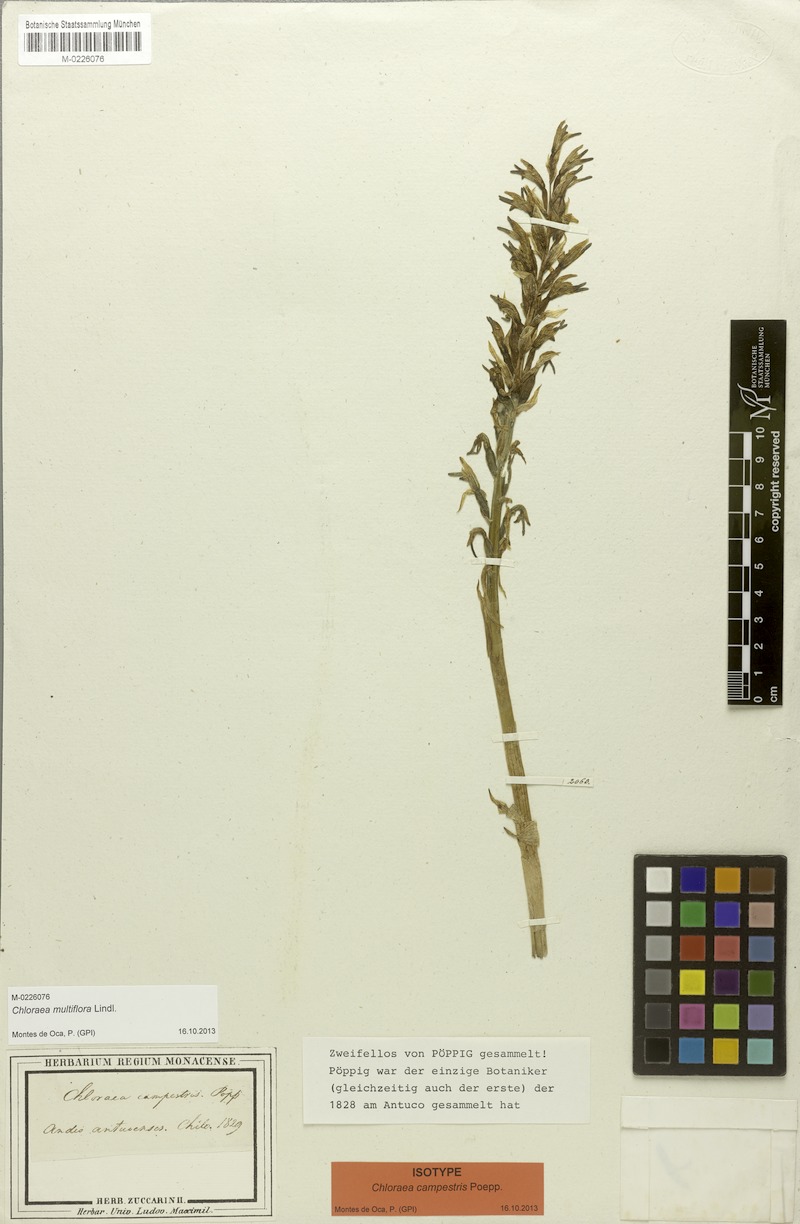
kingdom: Plantae
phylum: Tracheophyta
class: Liliopsida
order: Asparagales
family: Orchidaceae
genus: Chloraea
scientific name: Chloraea multiflora
